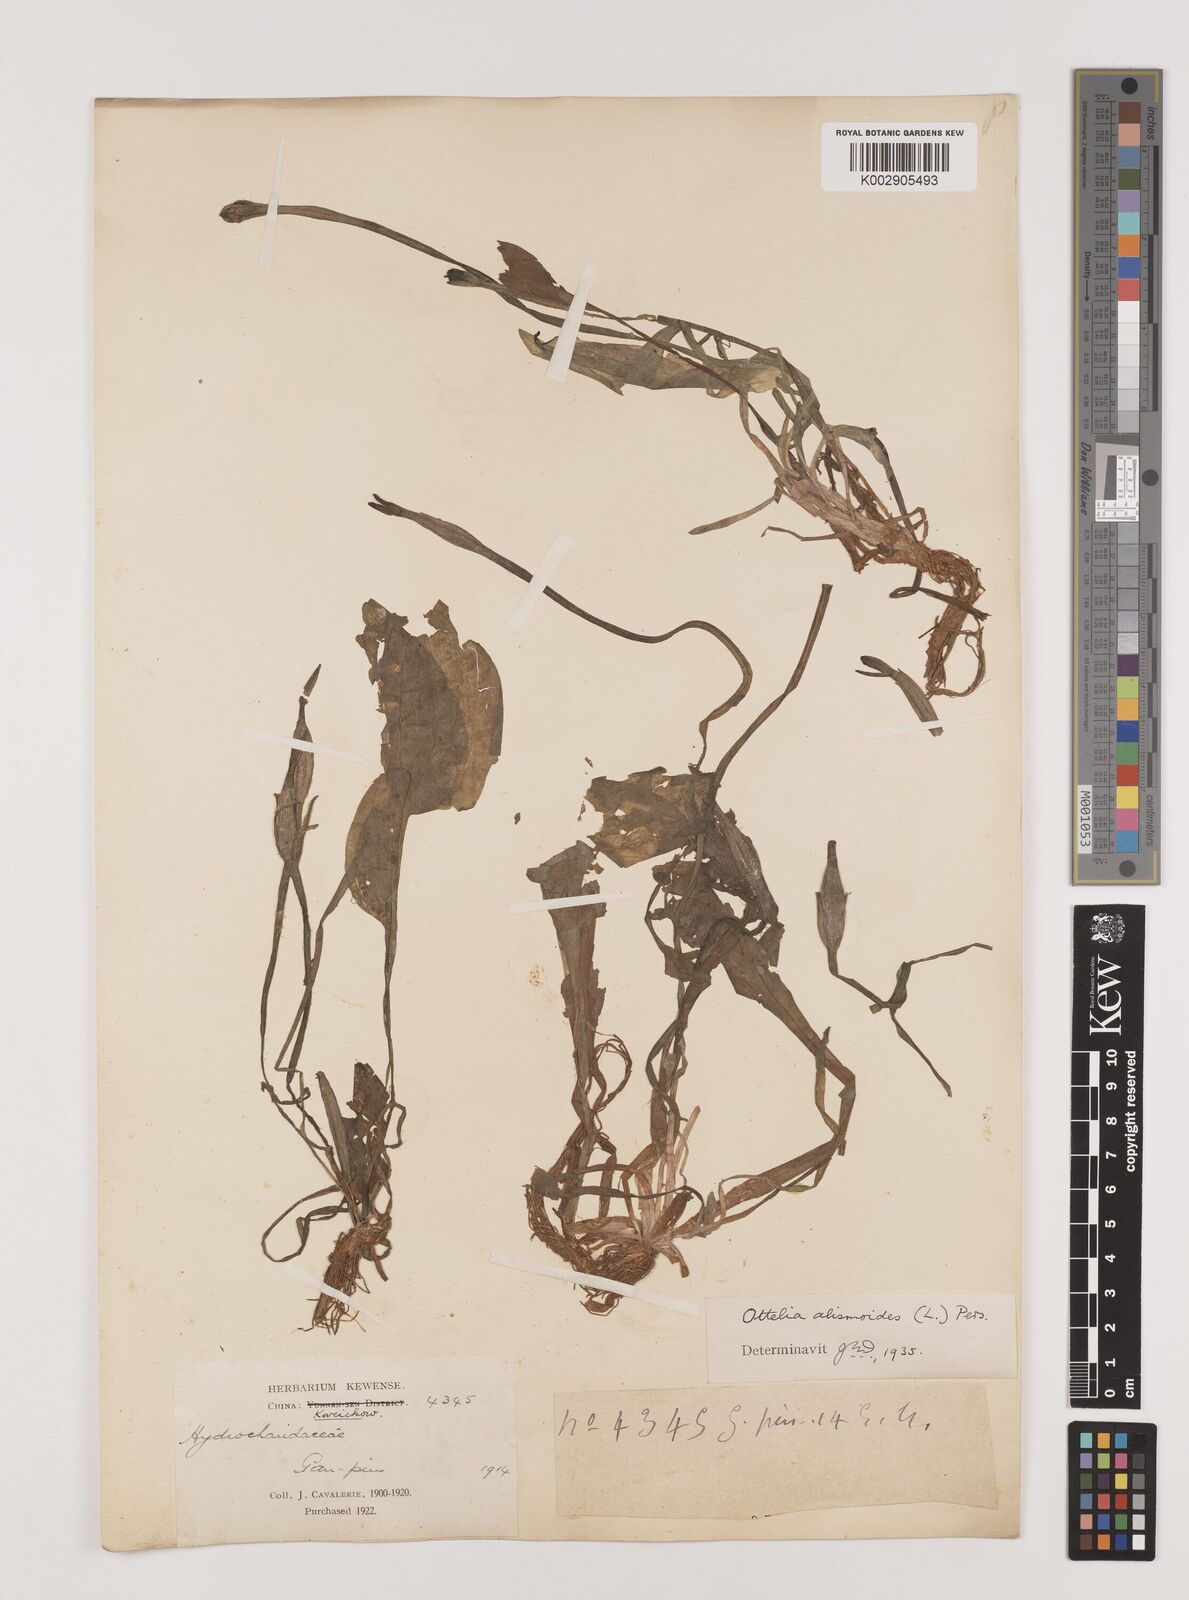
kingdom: Plantae
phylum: Tracheophyta
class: Liliopsida
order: Alismatales
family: Hydrocharitaceae
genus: Ottelia
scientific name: Ottelia alismoides
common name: Duck-lettuce
